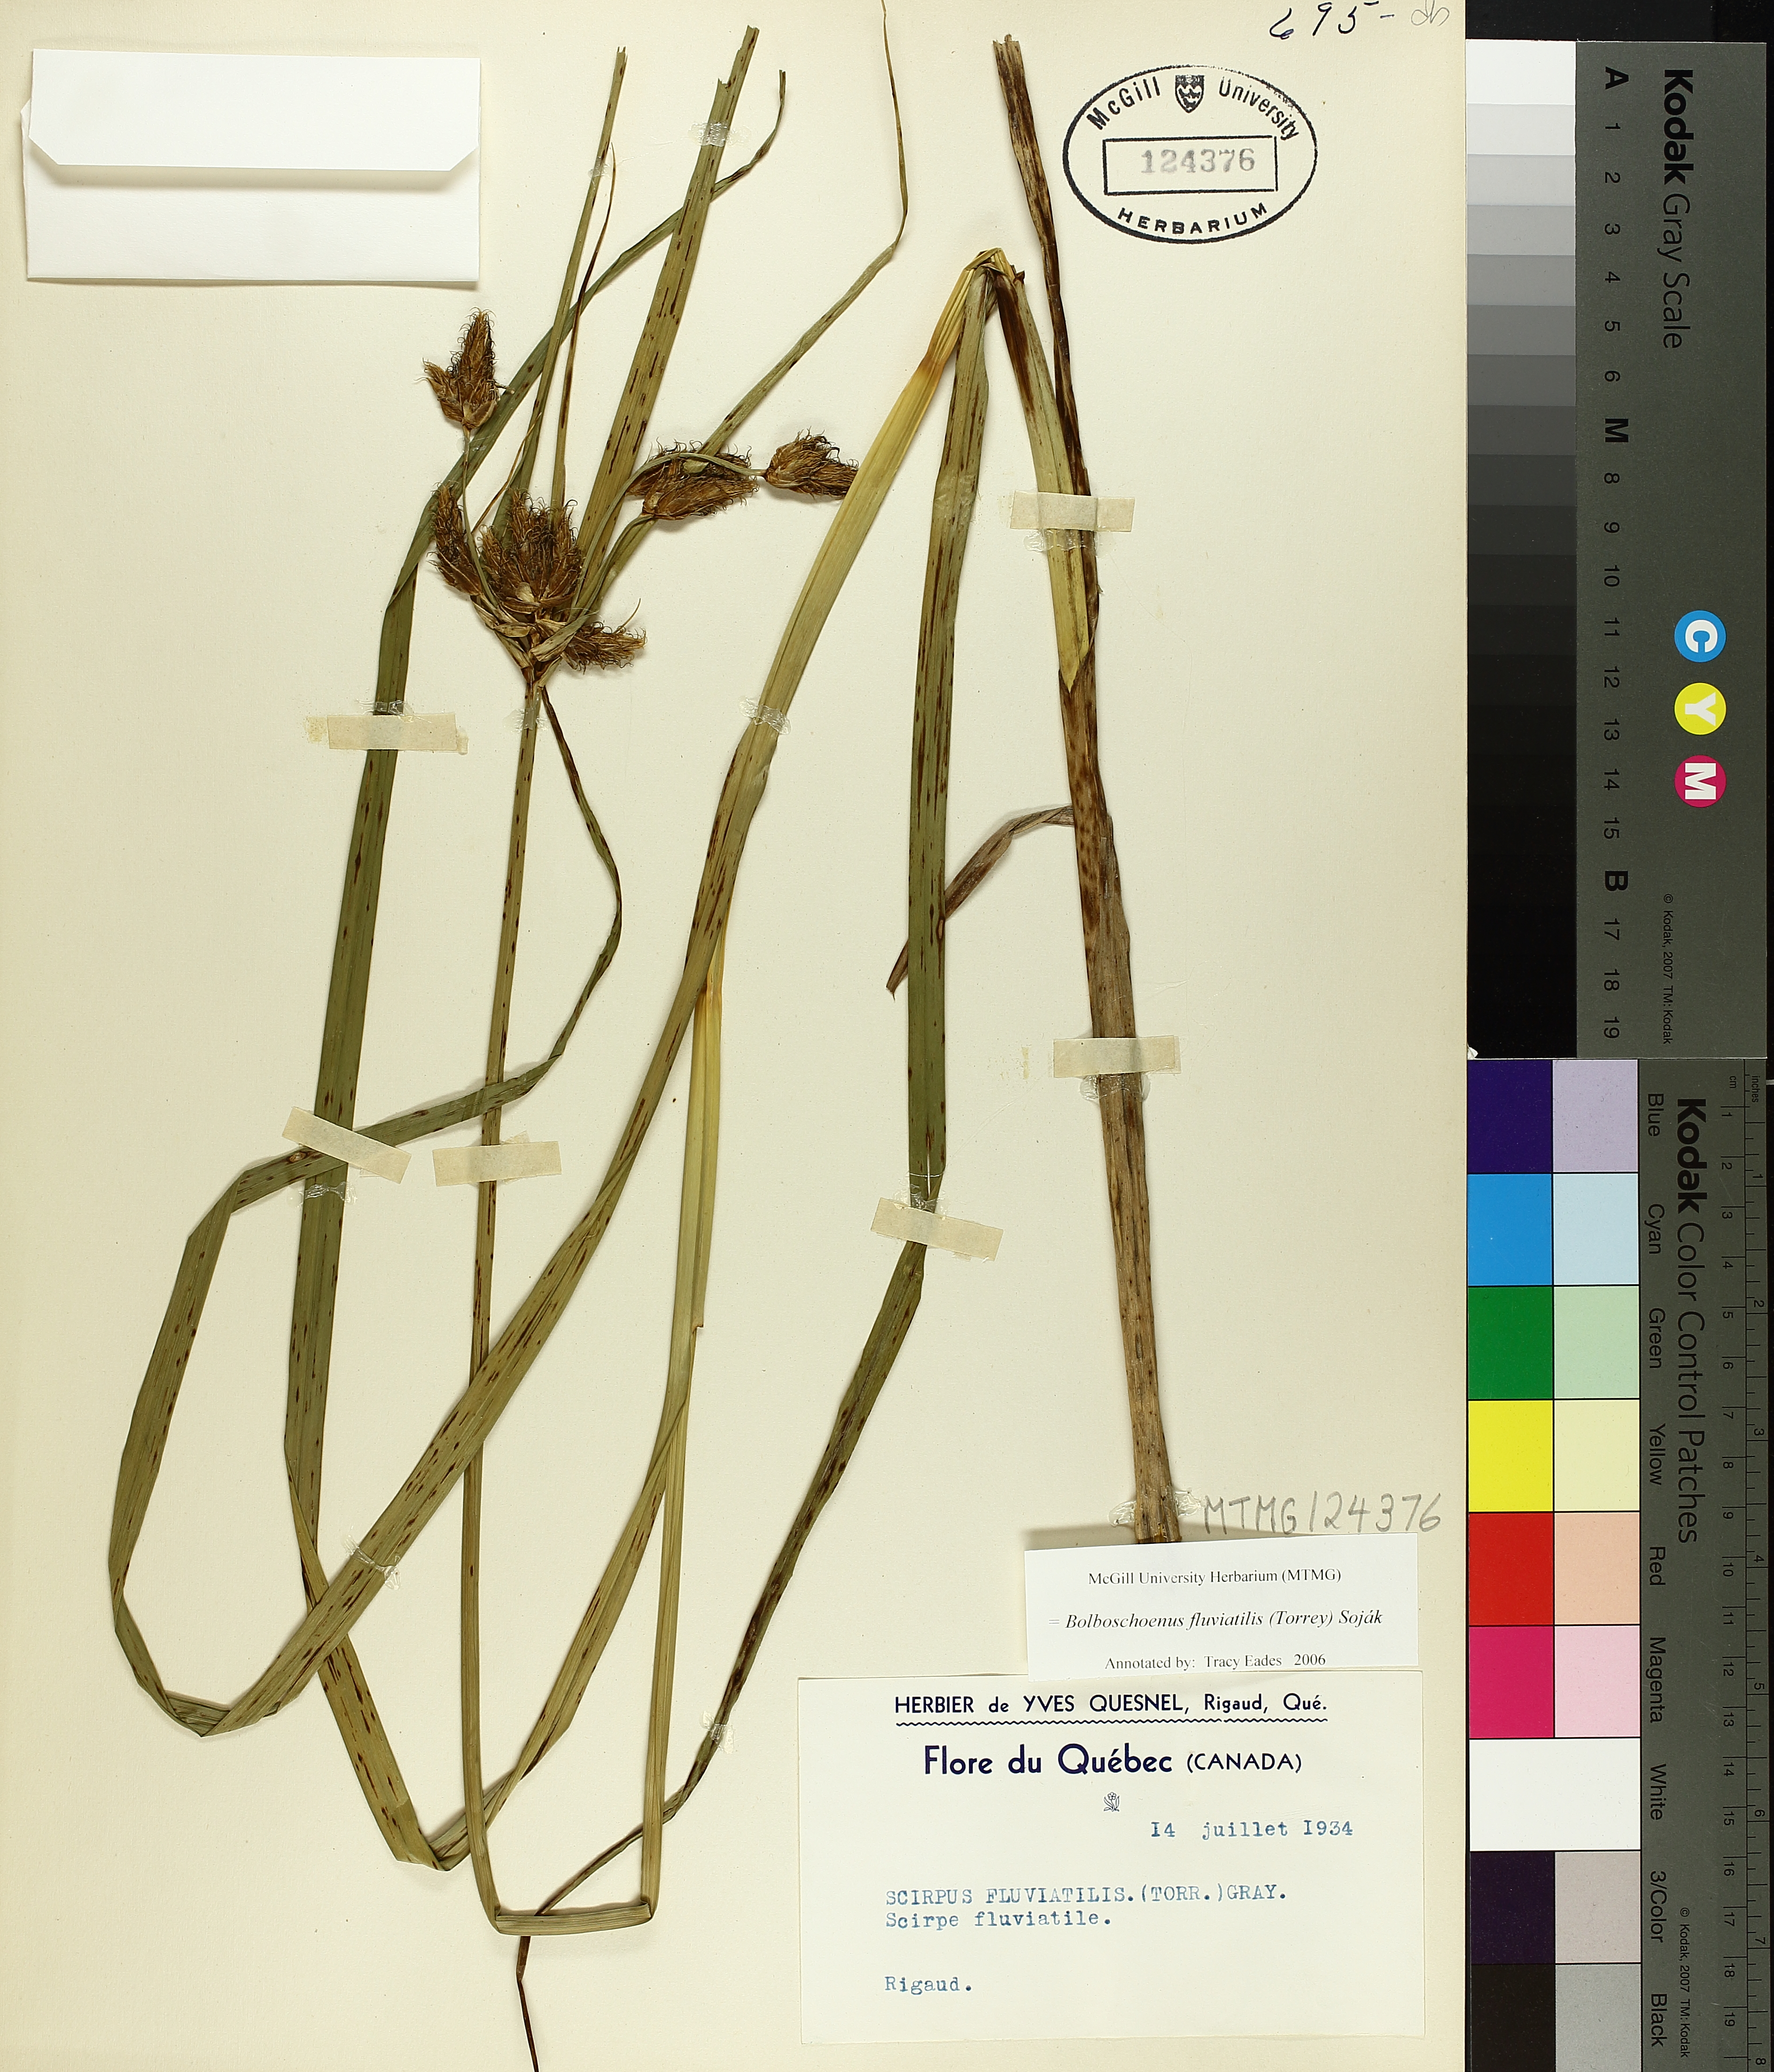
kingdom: Plantae
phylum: Tracheophyta
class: Liliopsida
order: Poales
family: Cyperaceae
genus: Bolboschoenus
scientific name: Bolboschoenus fluviatilis
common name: River bulrush
